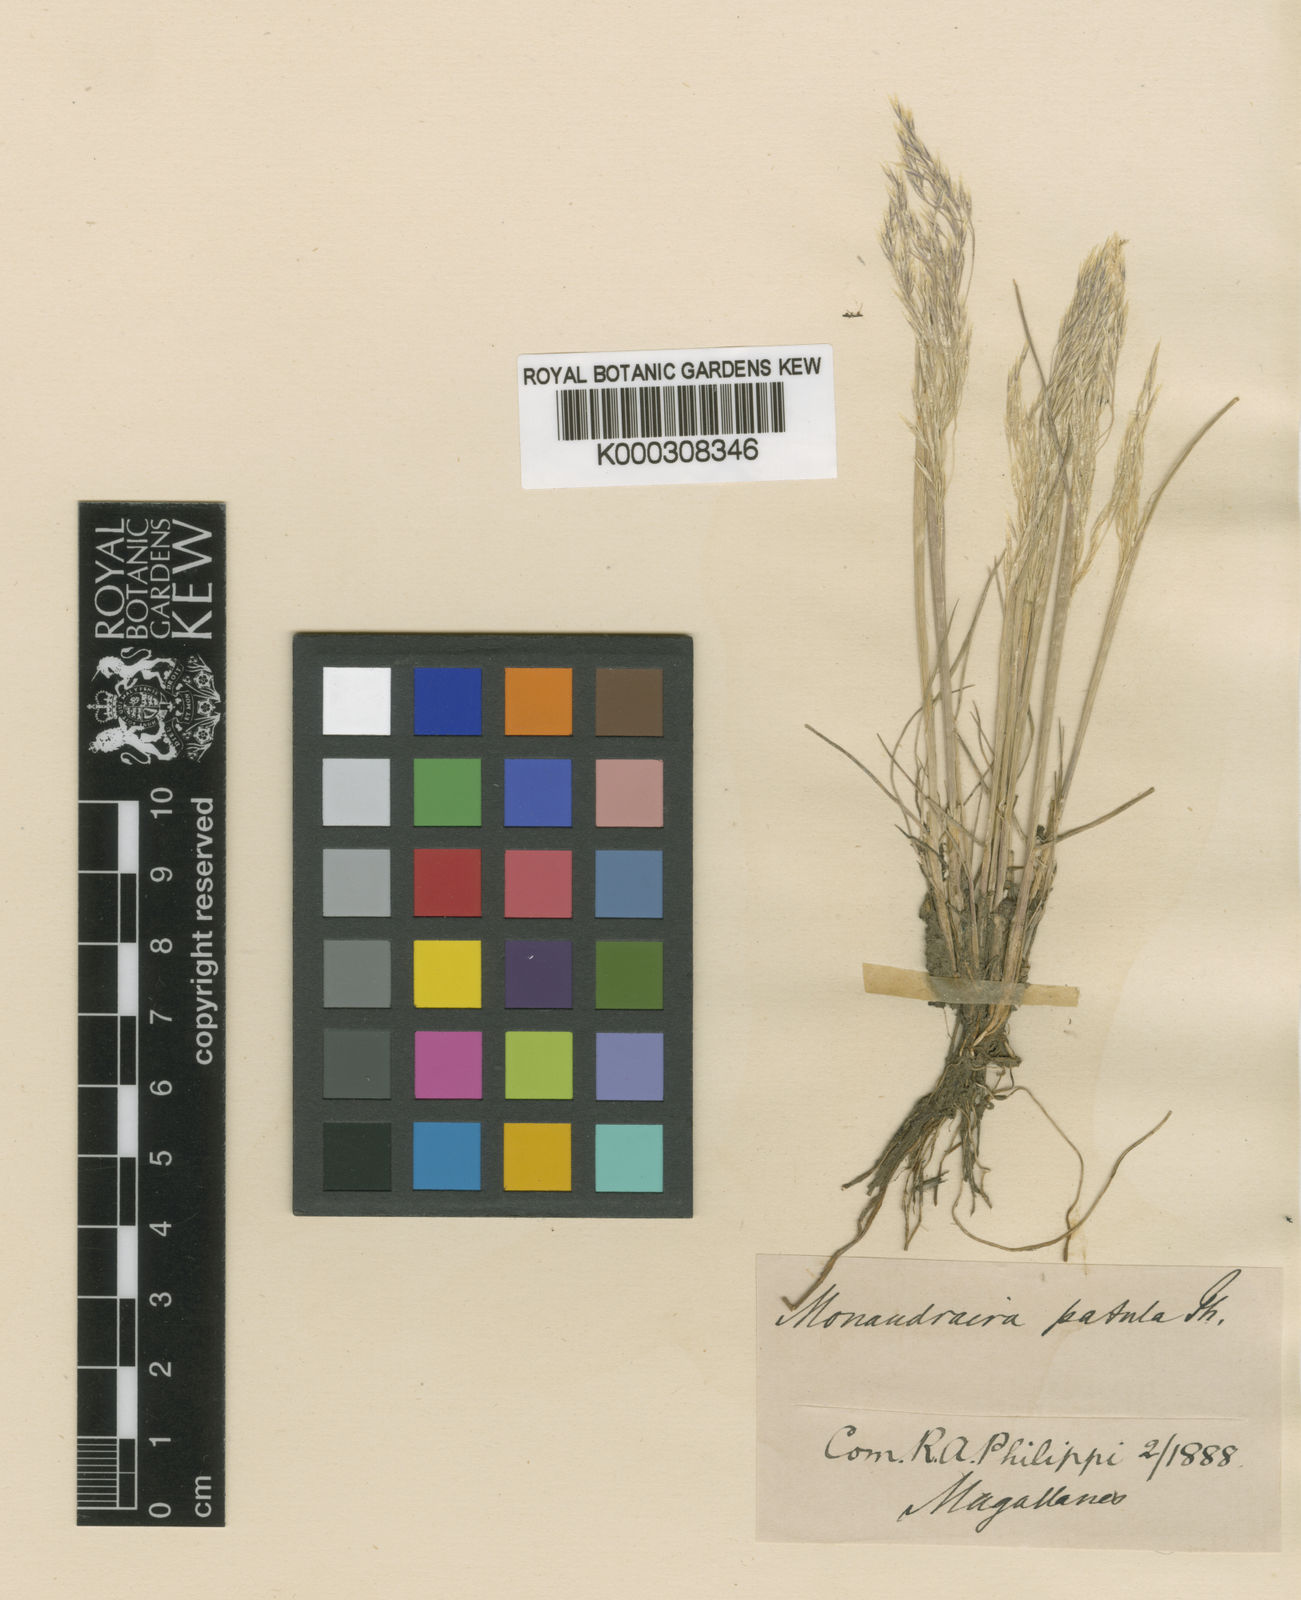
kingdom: Plantae
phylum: Tracheophyta
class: Liliopsida
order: Poales
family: Poaceae
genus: Deschampsia
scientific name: Deschampsia patula
